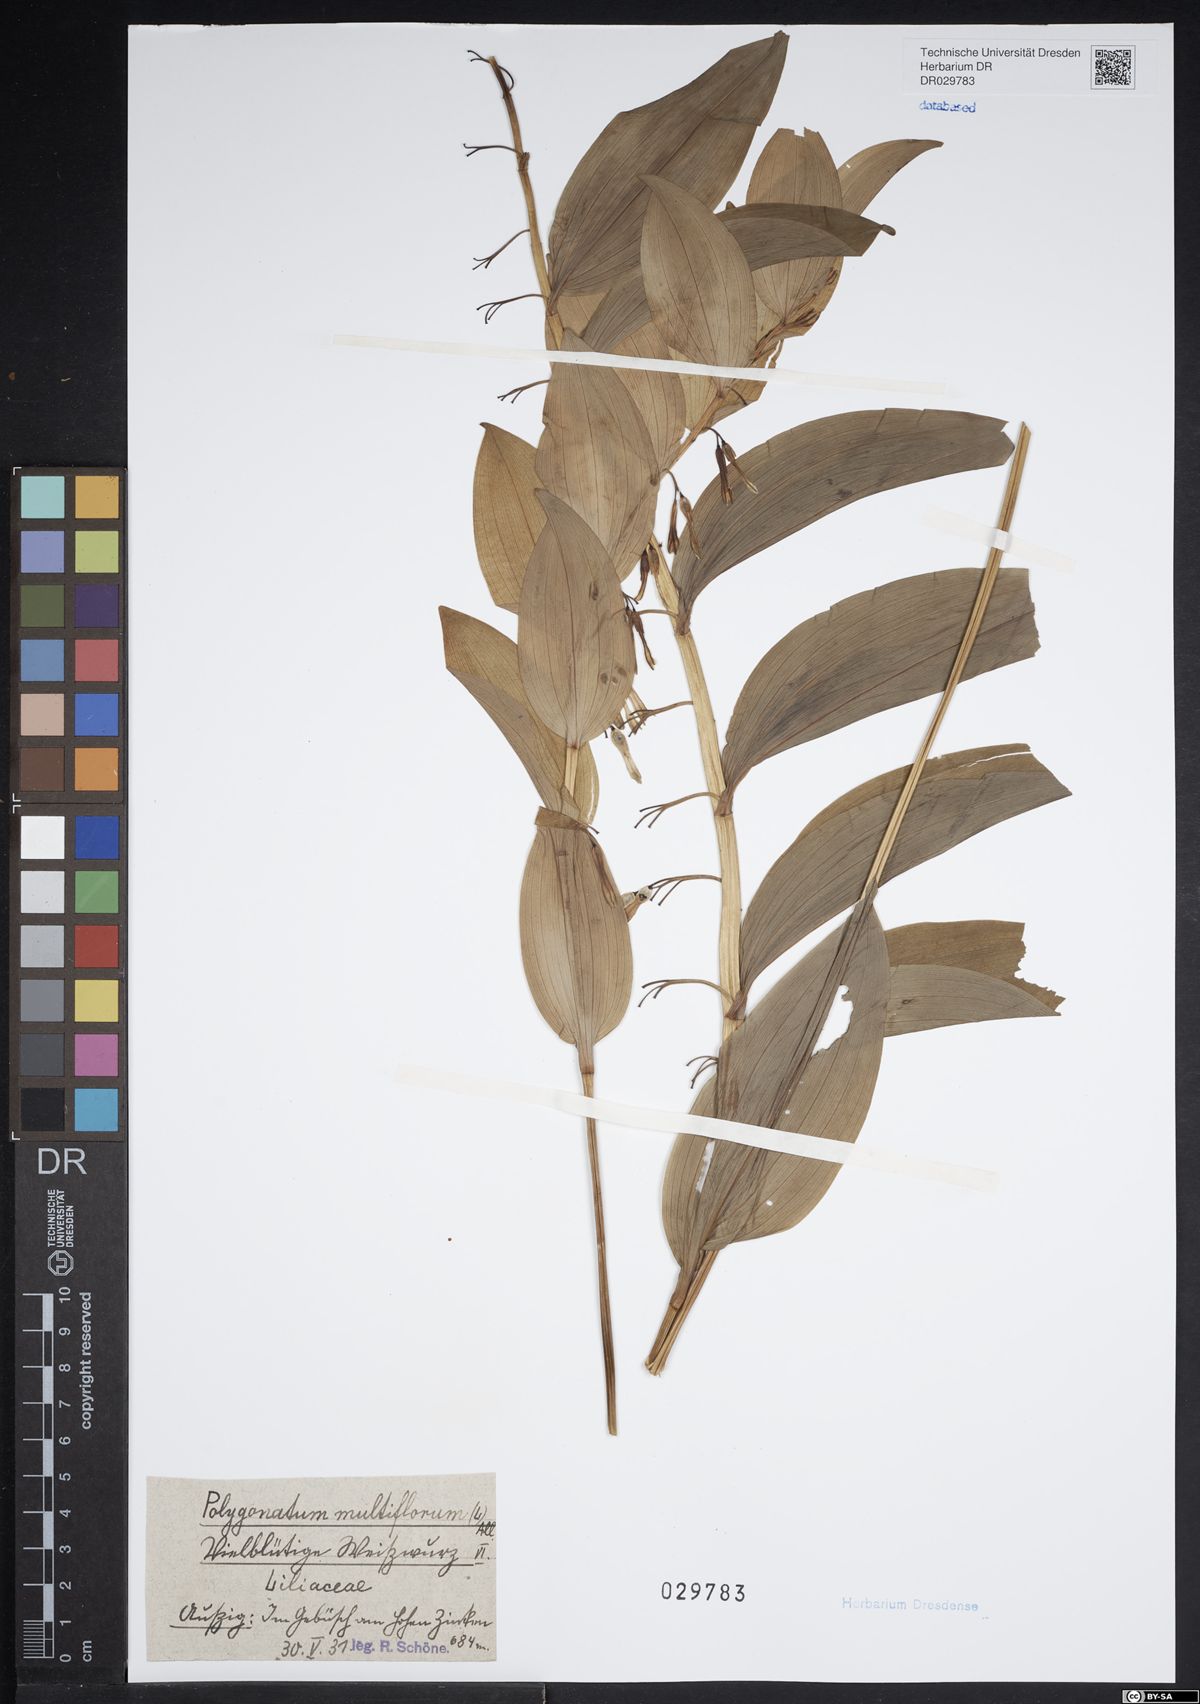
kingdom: Plantae
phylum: Tracheophyta
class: Liliopsida
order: Asparagales
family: Asparagaceae
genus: Polygonatum
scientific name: Polygonatum multiflorum
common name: Solomon's-seal
